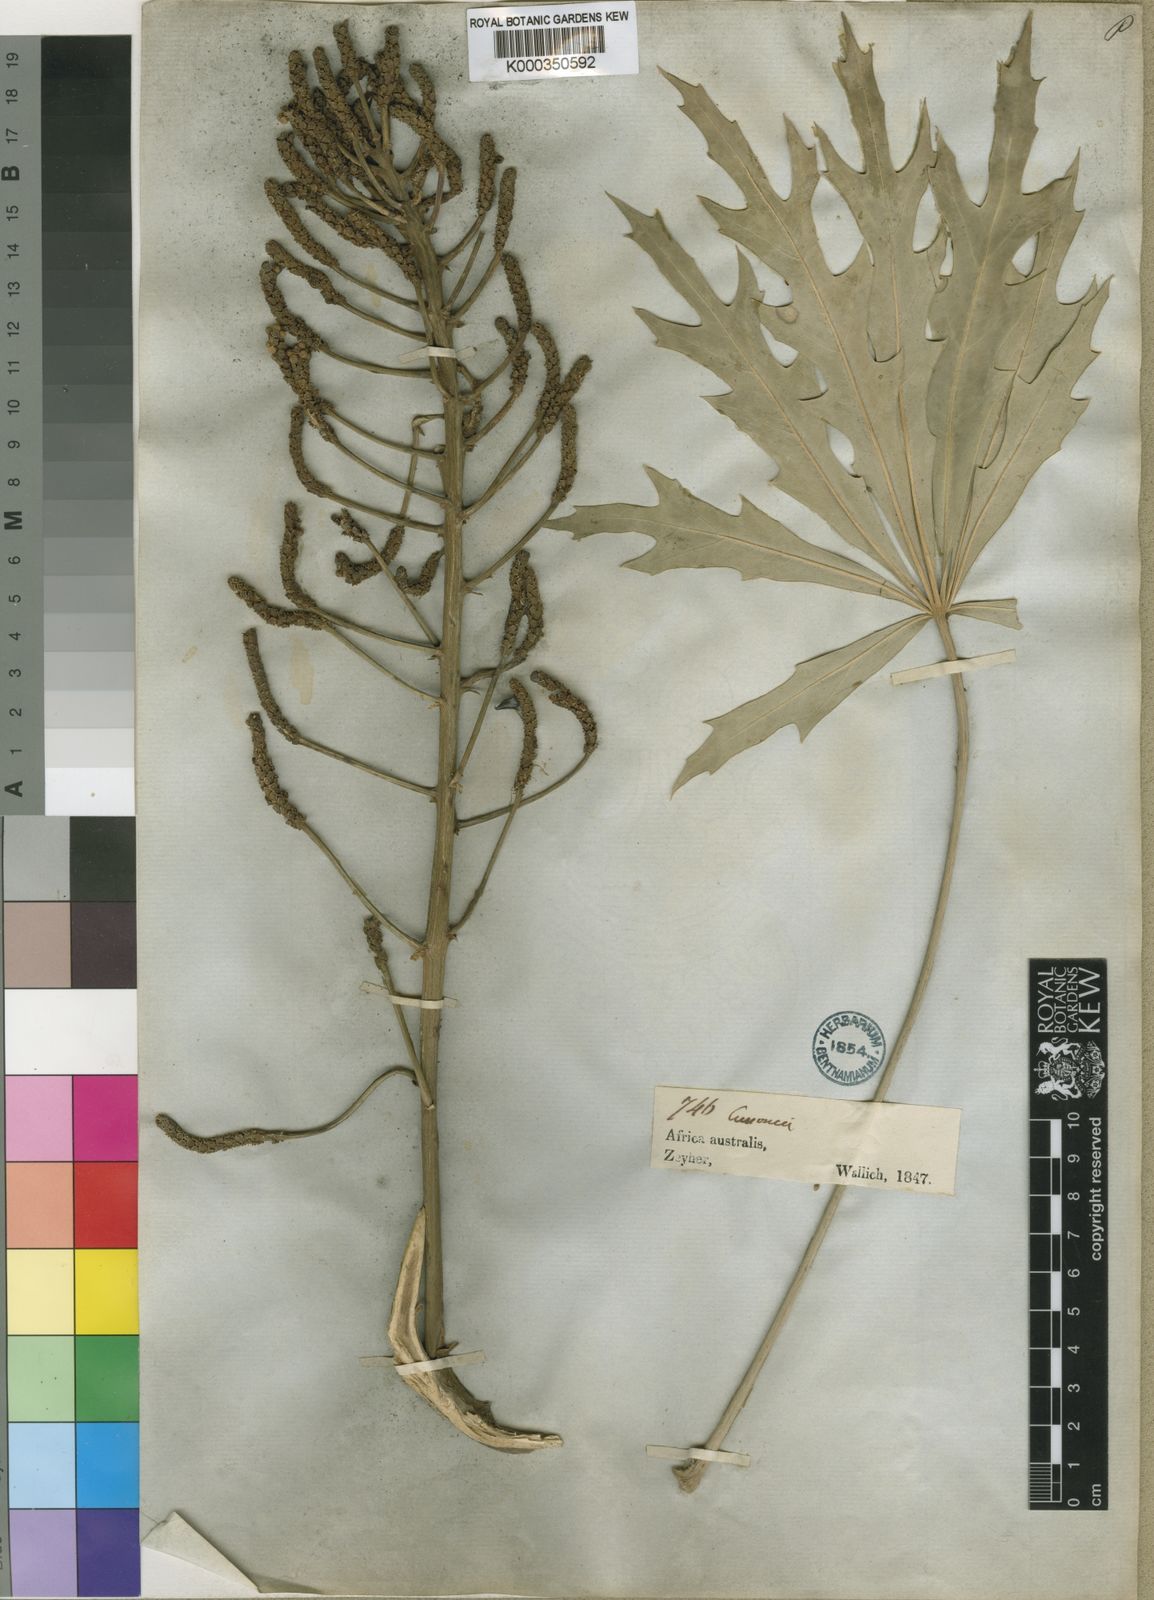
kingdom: Plantae
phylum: Tracheophyta
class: Magnoliopsida
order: Apiales
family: Araliaceae
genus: Cussonia
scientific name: Cussonia paniculata
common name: Cabbagetree
